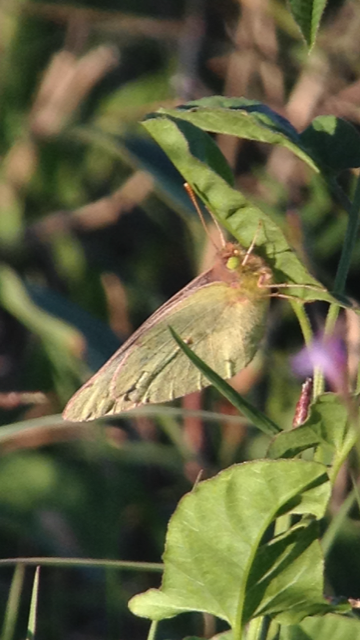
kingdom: Animalia
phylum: Arthropoda
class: Insecta
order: Lepidoptera
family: Pieridae
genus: Colias
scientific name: Colias eurytheme
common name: Orange Sulphur
